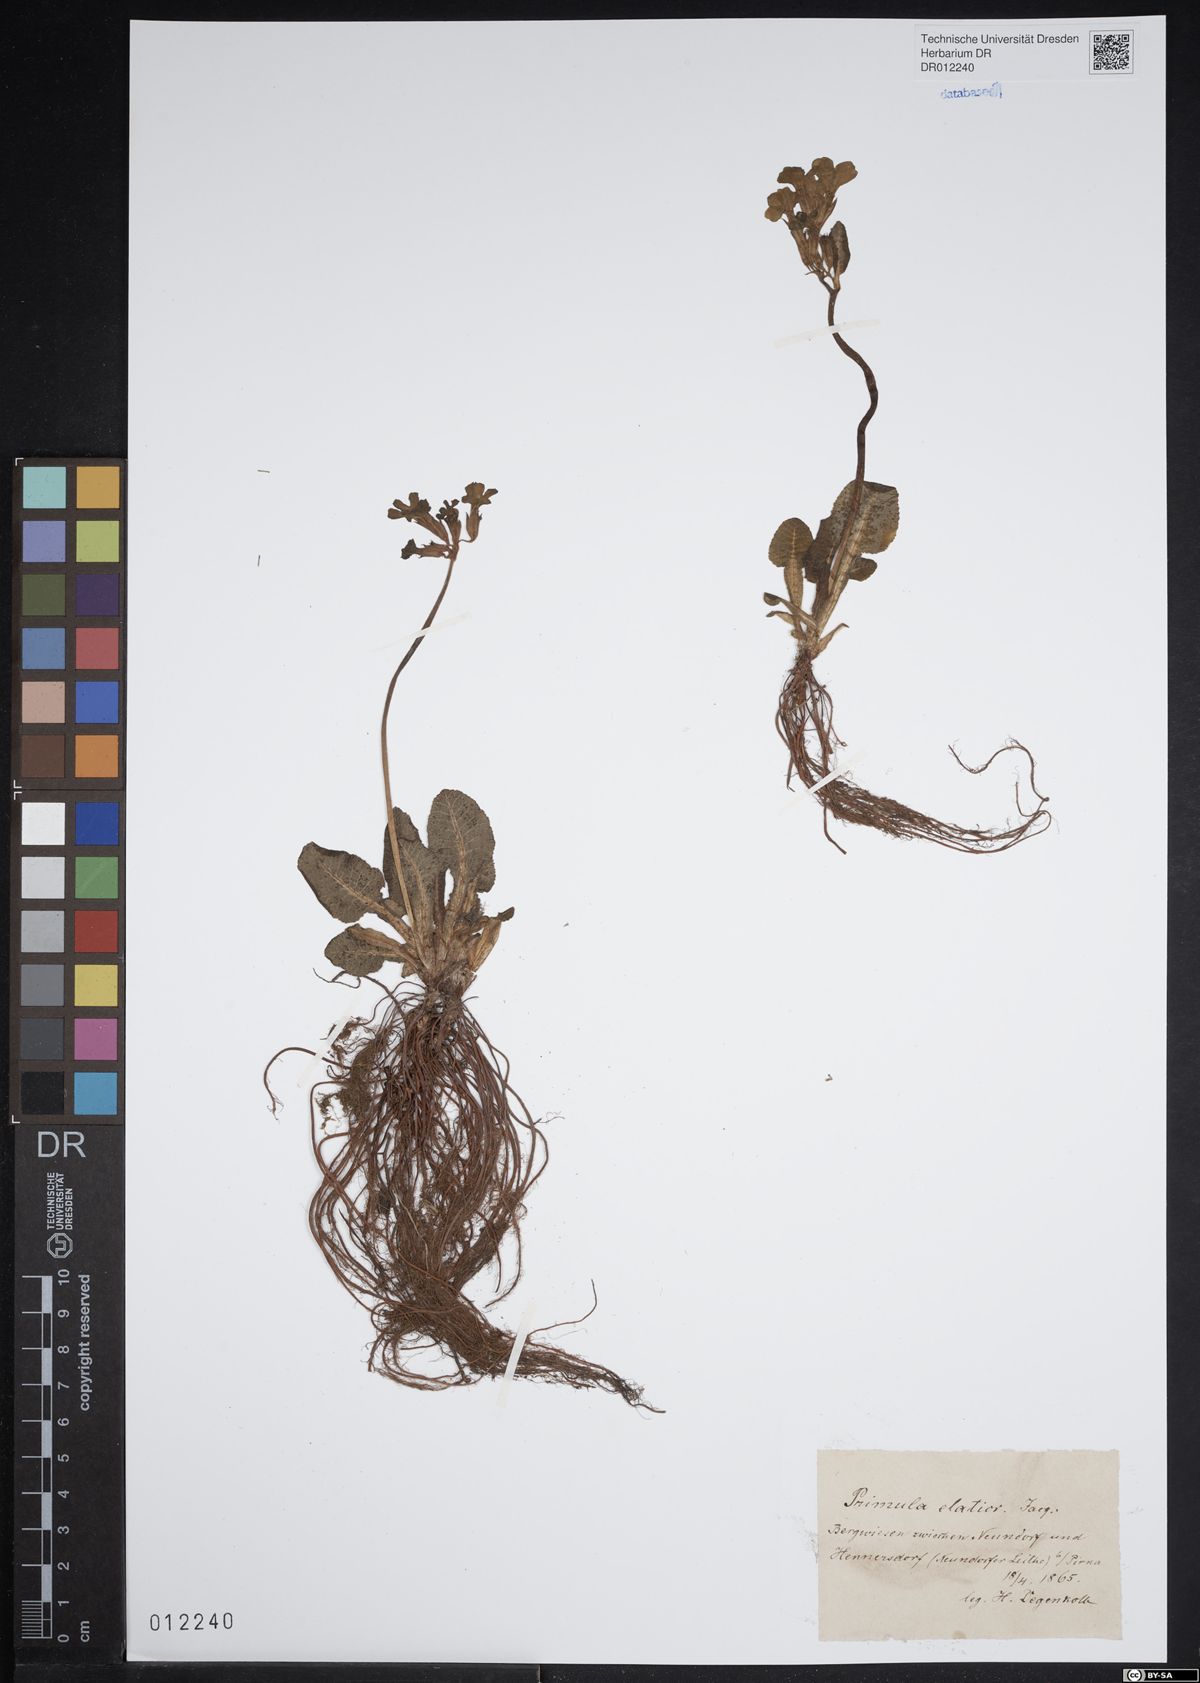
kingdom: Plantae
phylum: Tracheophyta
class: Magnoliopsida
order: Ericales
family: Primulaceae
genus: Primula
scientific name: Primula elatior
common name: Oxlip
